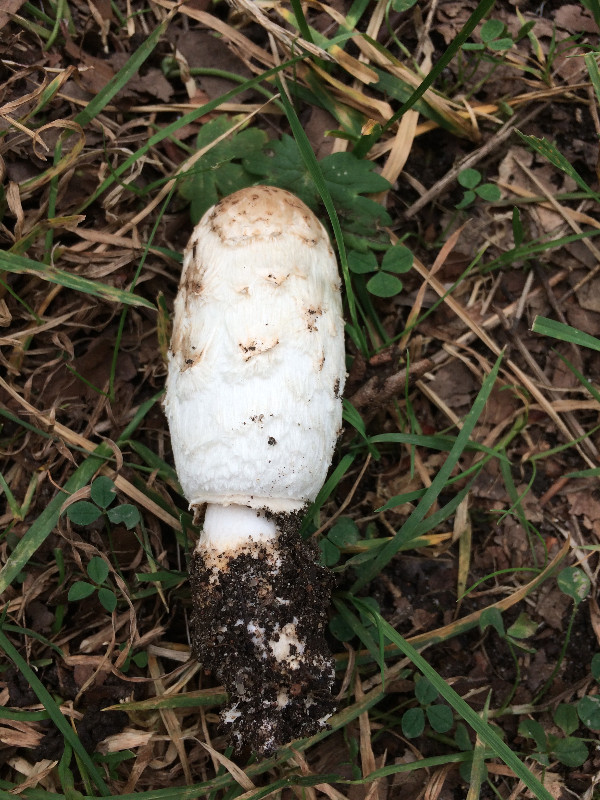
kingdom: Fungi
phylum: Basidiomycota
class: Agaricomycetes
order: Agaricales
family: Agaricaceae
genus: Coprinus
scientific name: Coprinus comatus
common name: stor parykhat
